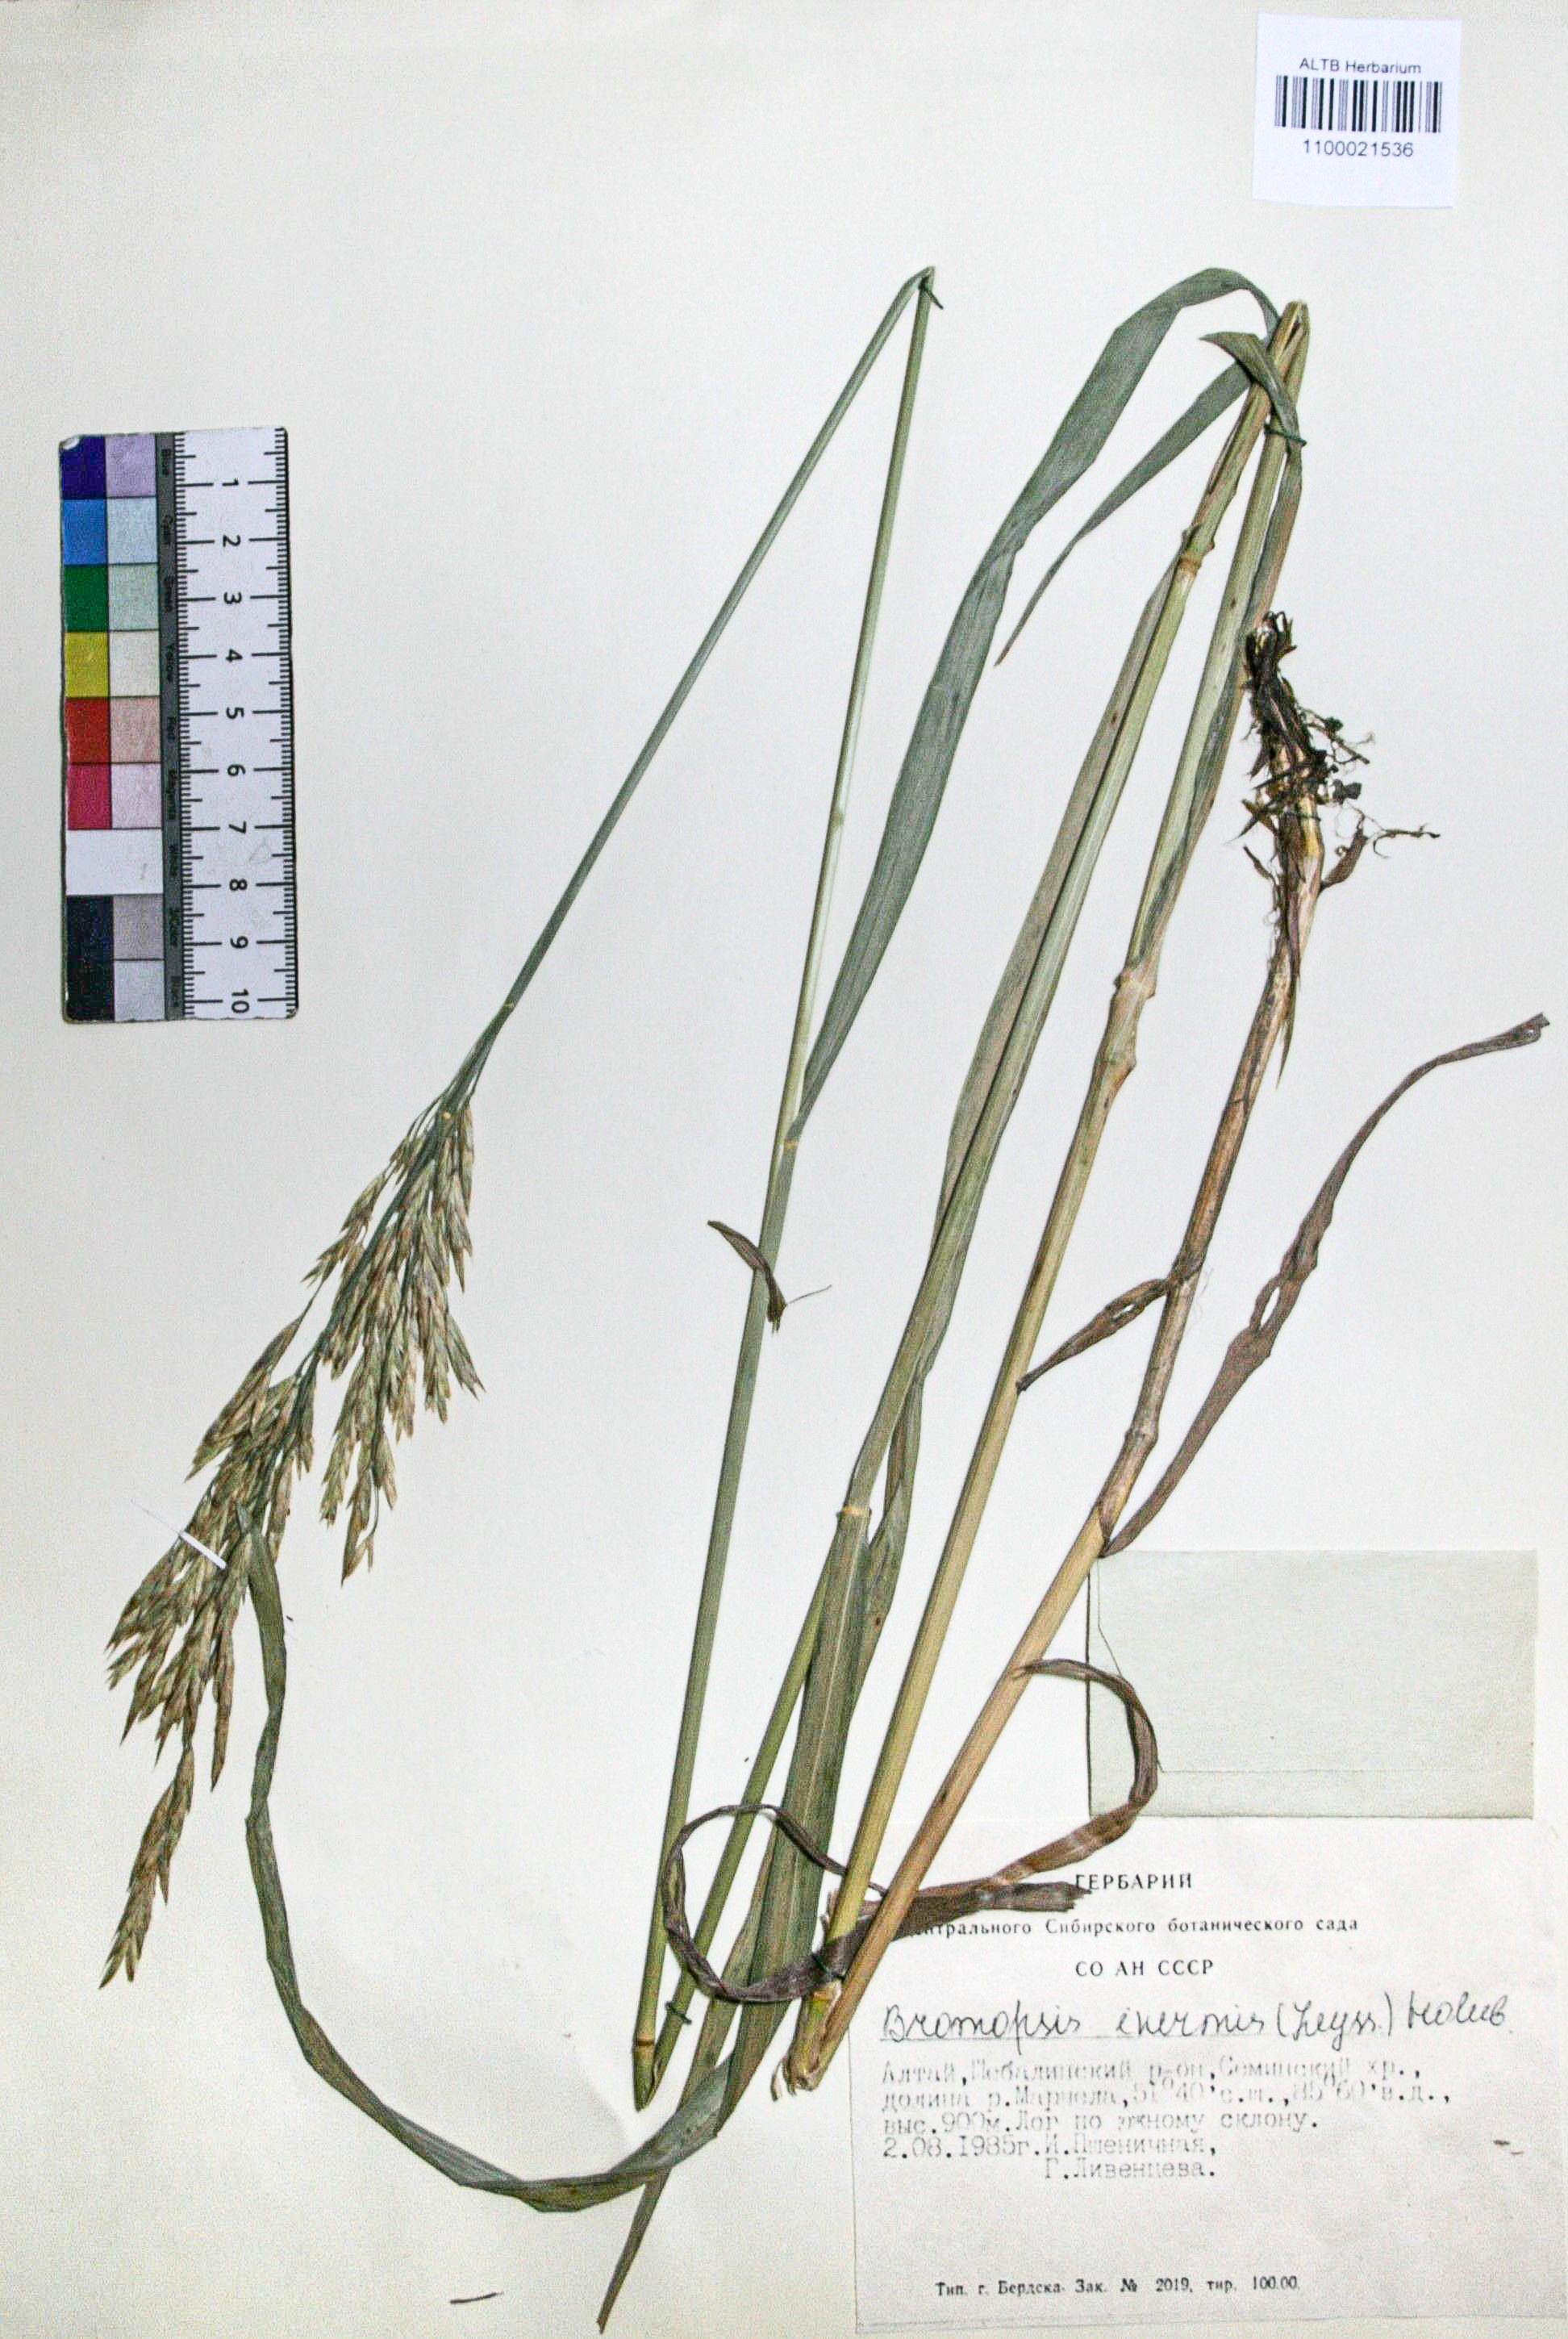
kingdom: Plantae
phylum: Tracheophyta
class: Liliopsida
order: Poales
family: Poaceae
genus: Bromus
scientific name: Bromus inermis
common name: Smooth brome
